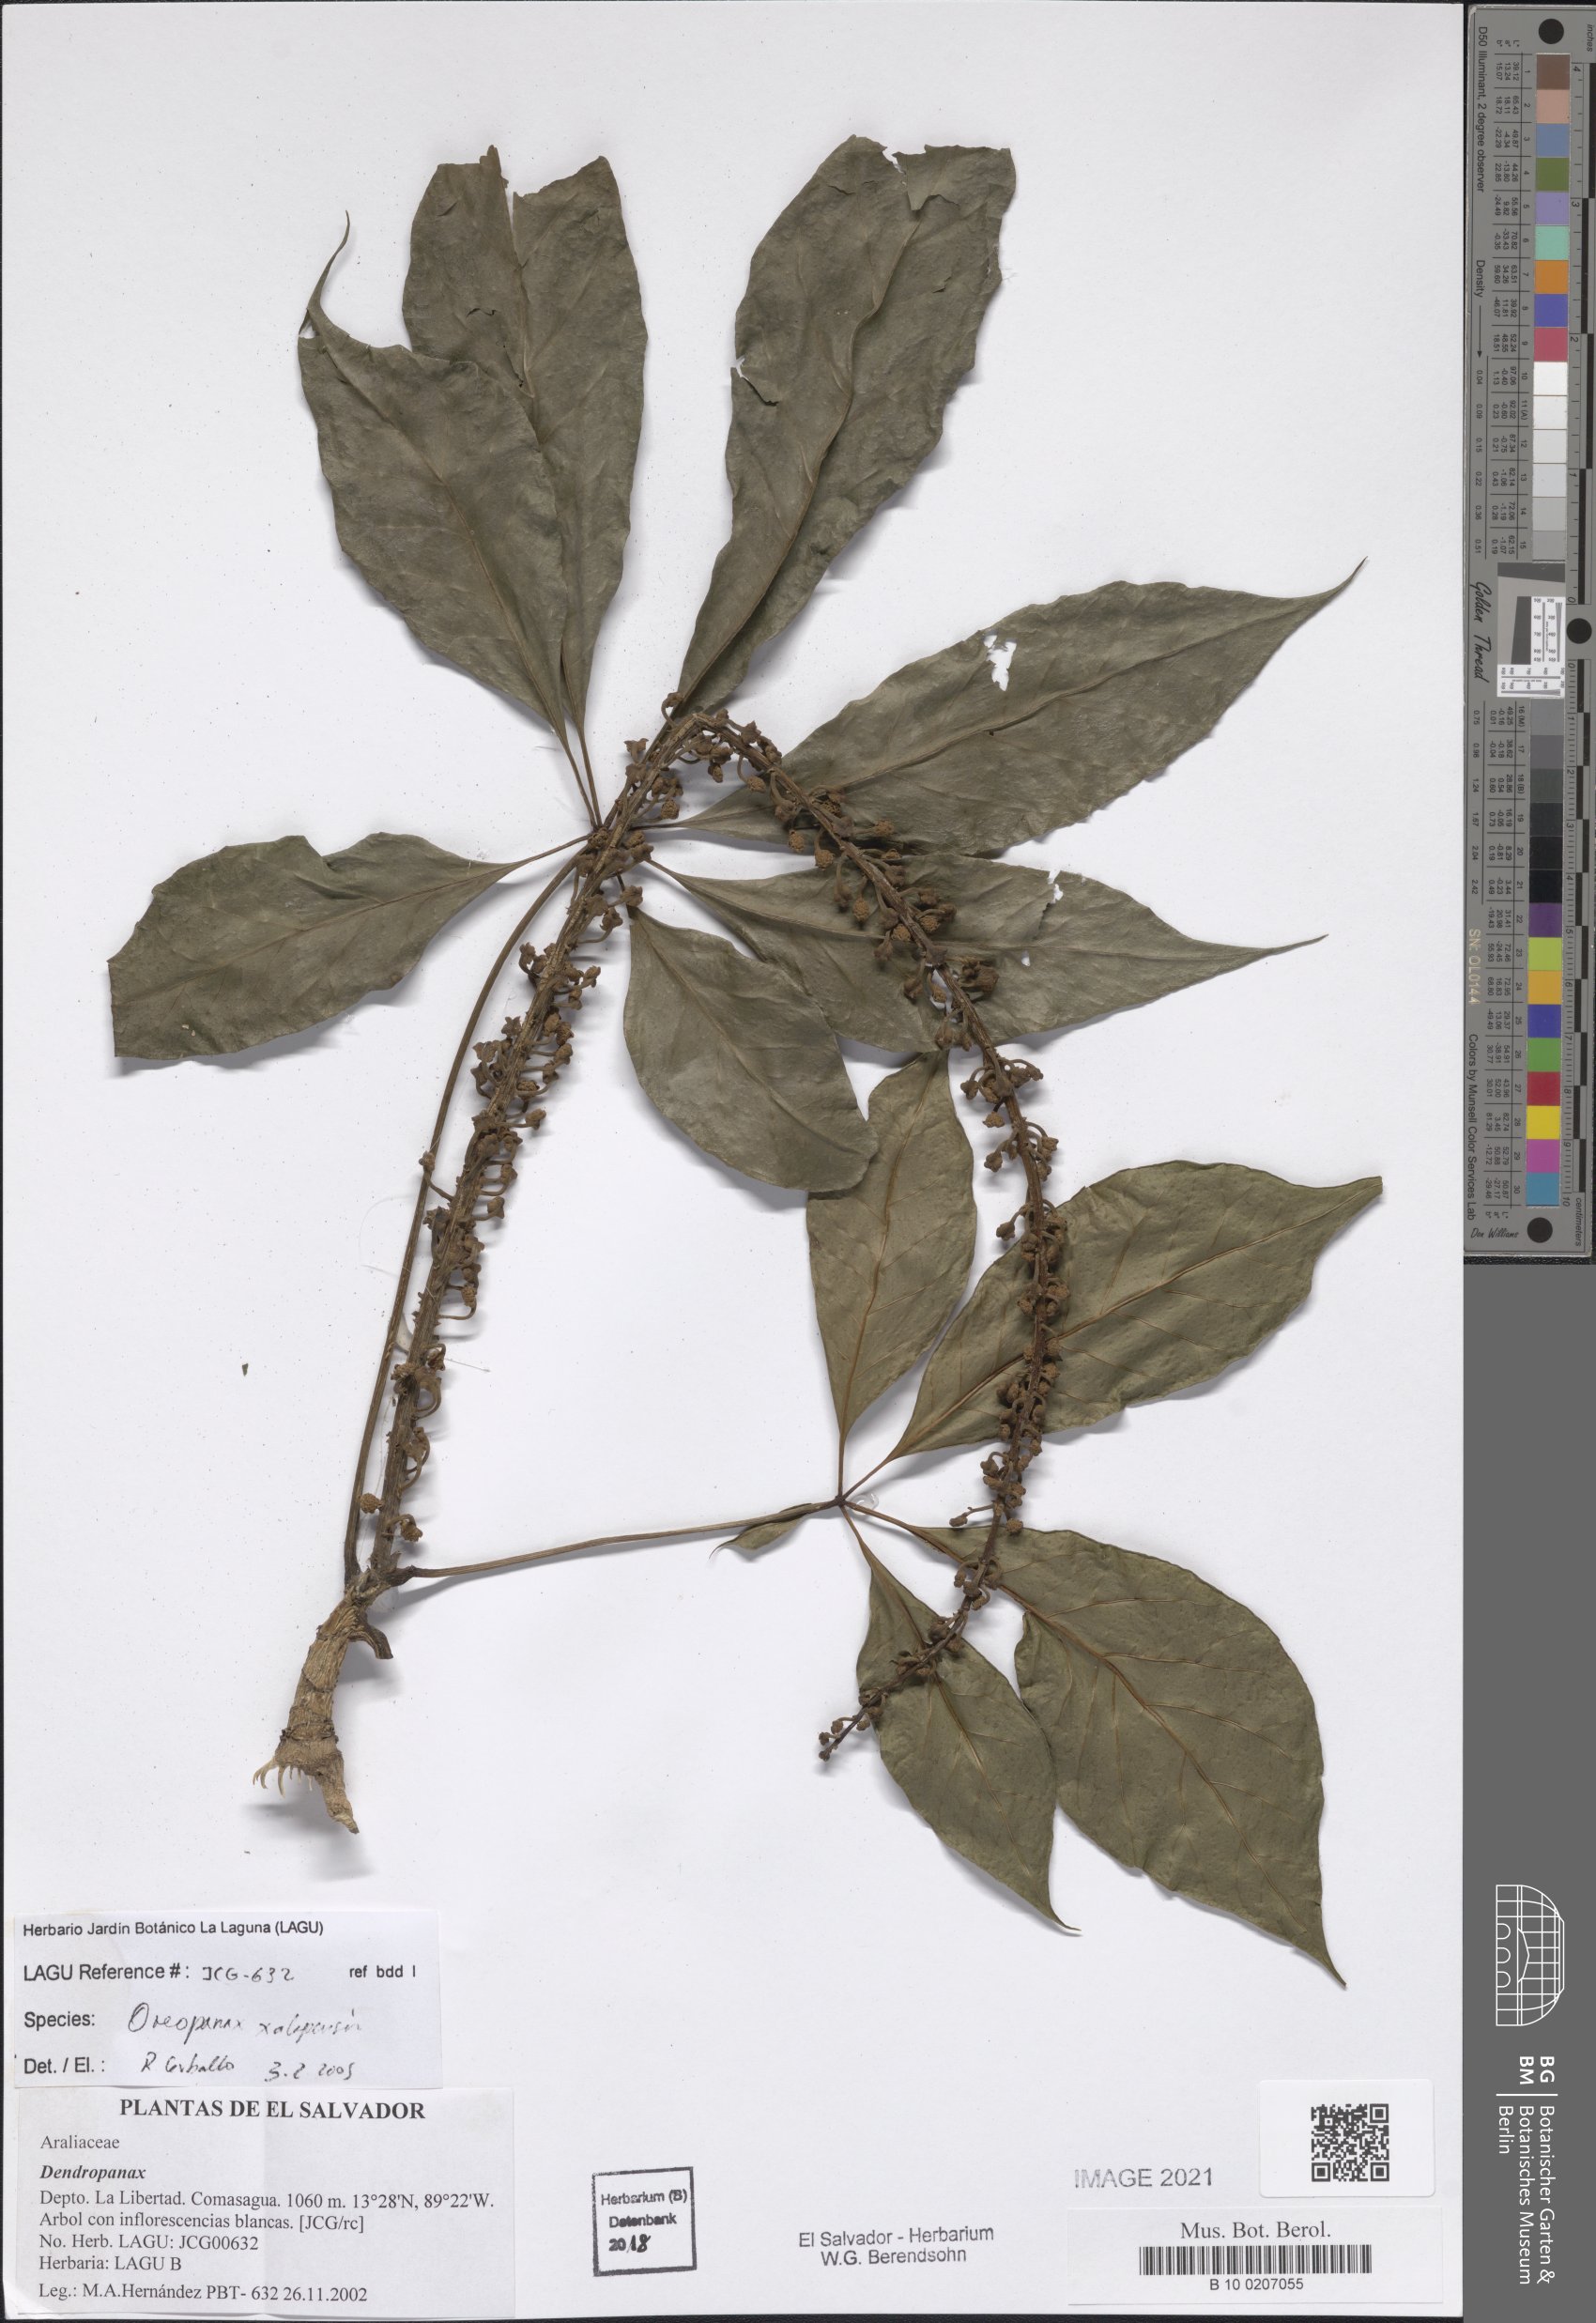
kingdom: Plantae
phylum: Tracheophyta
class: Magnoliopsida
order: Apiales
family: Araliaceae
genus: Oreopanax
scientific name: Oreopanax xalapensis
